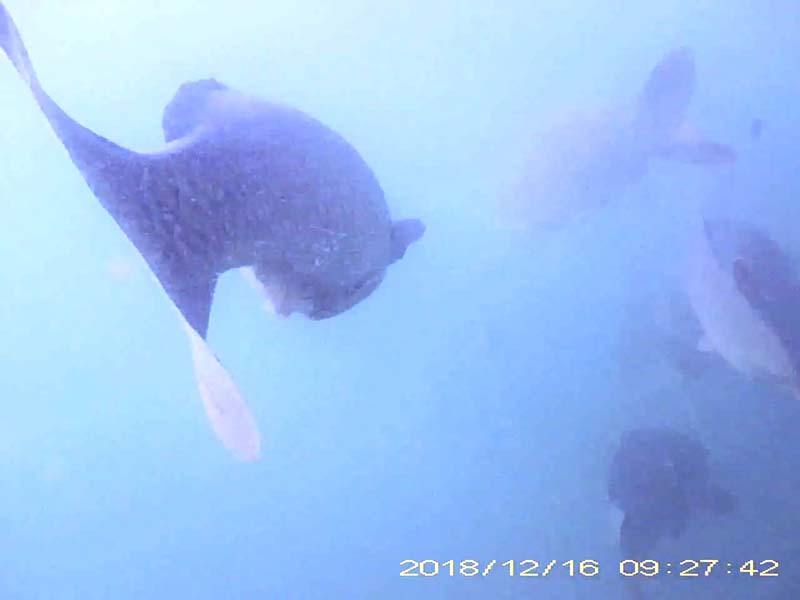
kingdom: Animalia
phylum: Chordata
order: Cypriniformes
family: Cyprinidae
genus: Cyprinus
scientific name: Cyprinus carpio
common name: コイ
